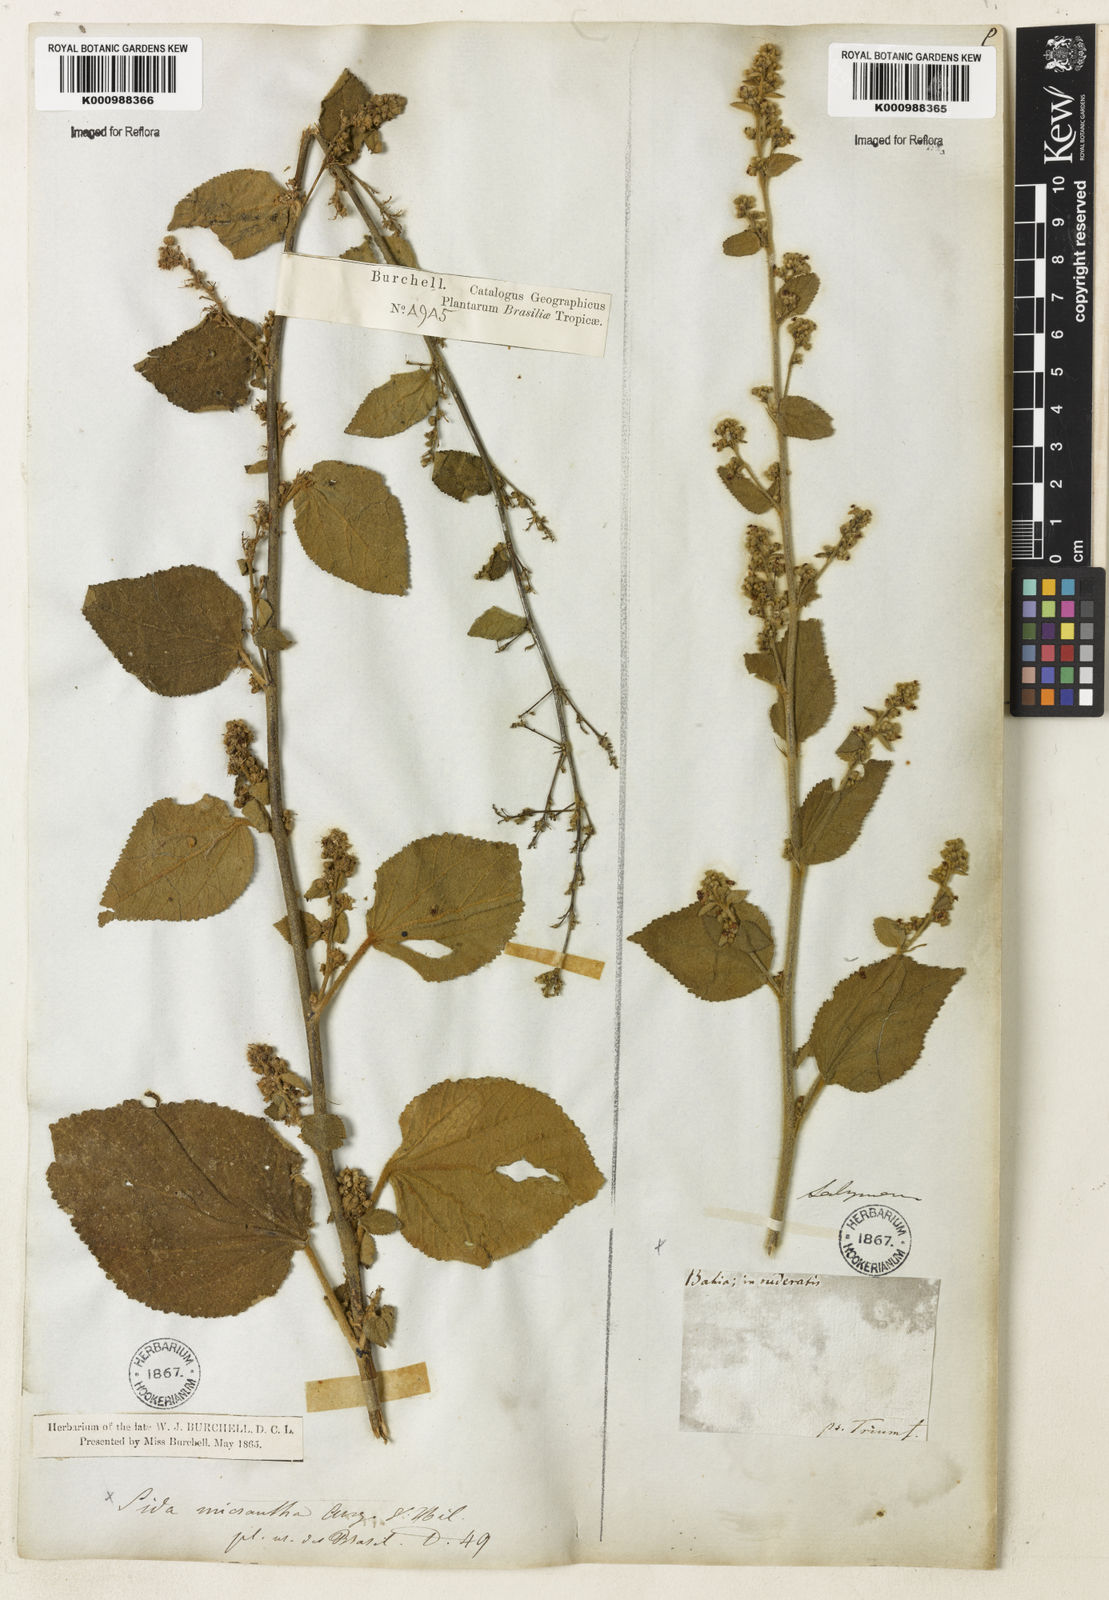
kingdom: Plantae
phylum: Tracheophyta
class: Magnoliopsida
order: Malvales
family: Malvaceae
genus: Sidastrum
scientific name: Sidastrum micranthum
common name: Dainty sandmallow
